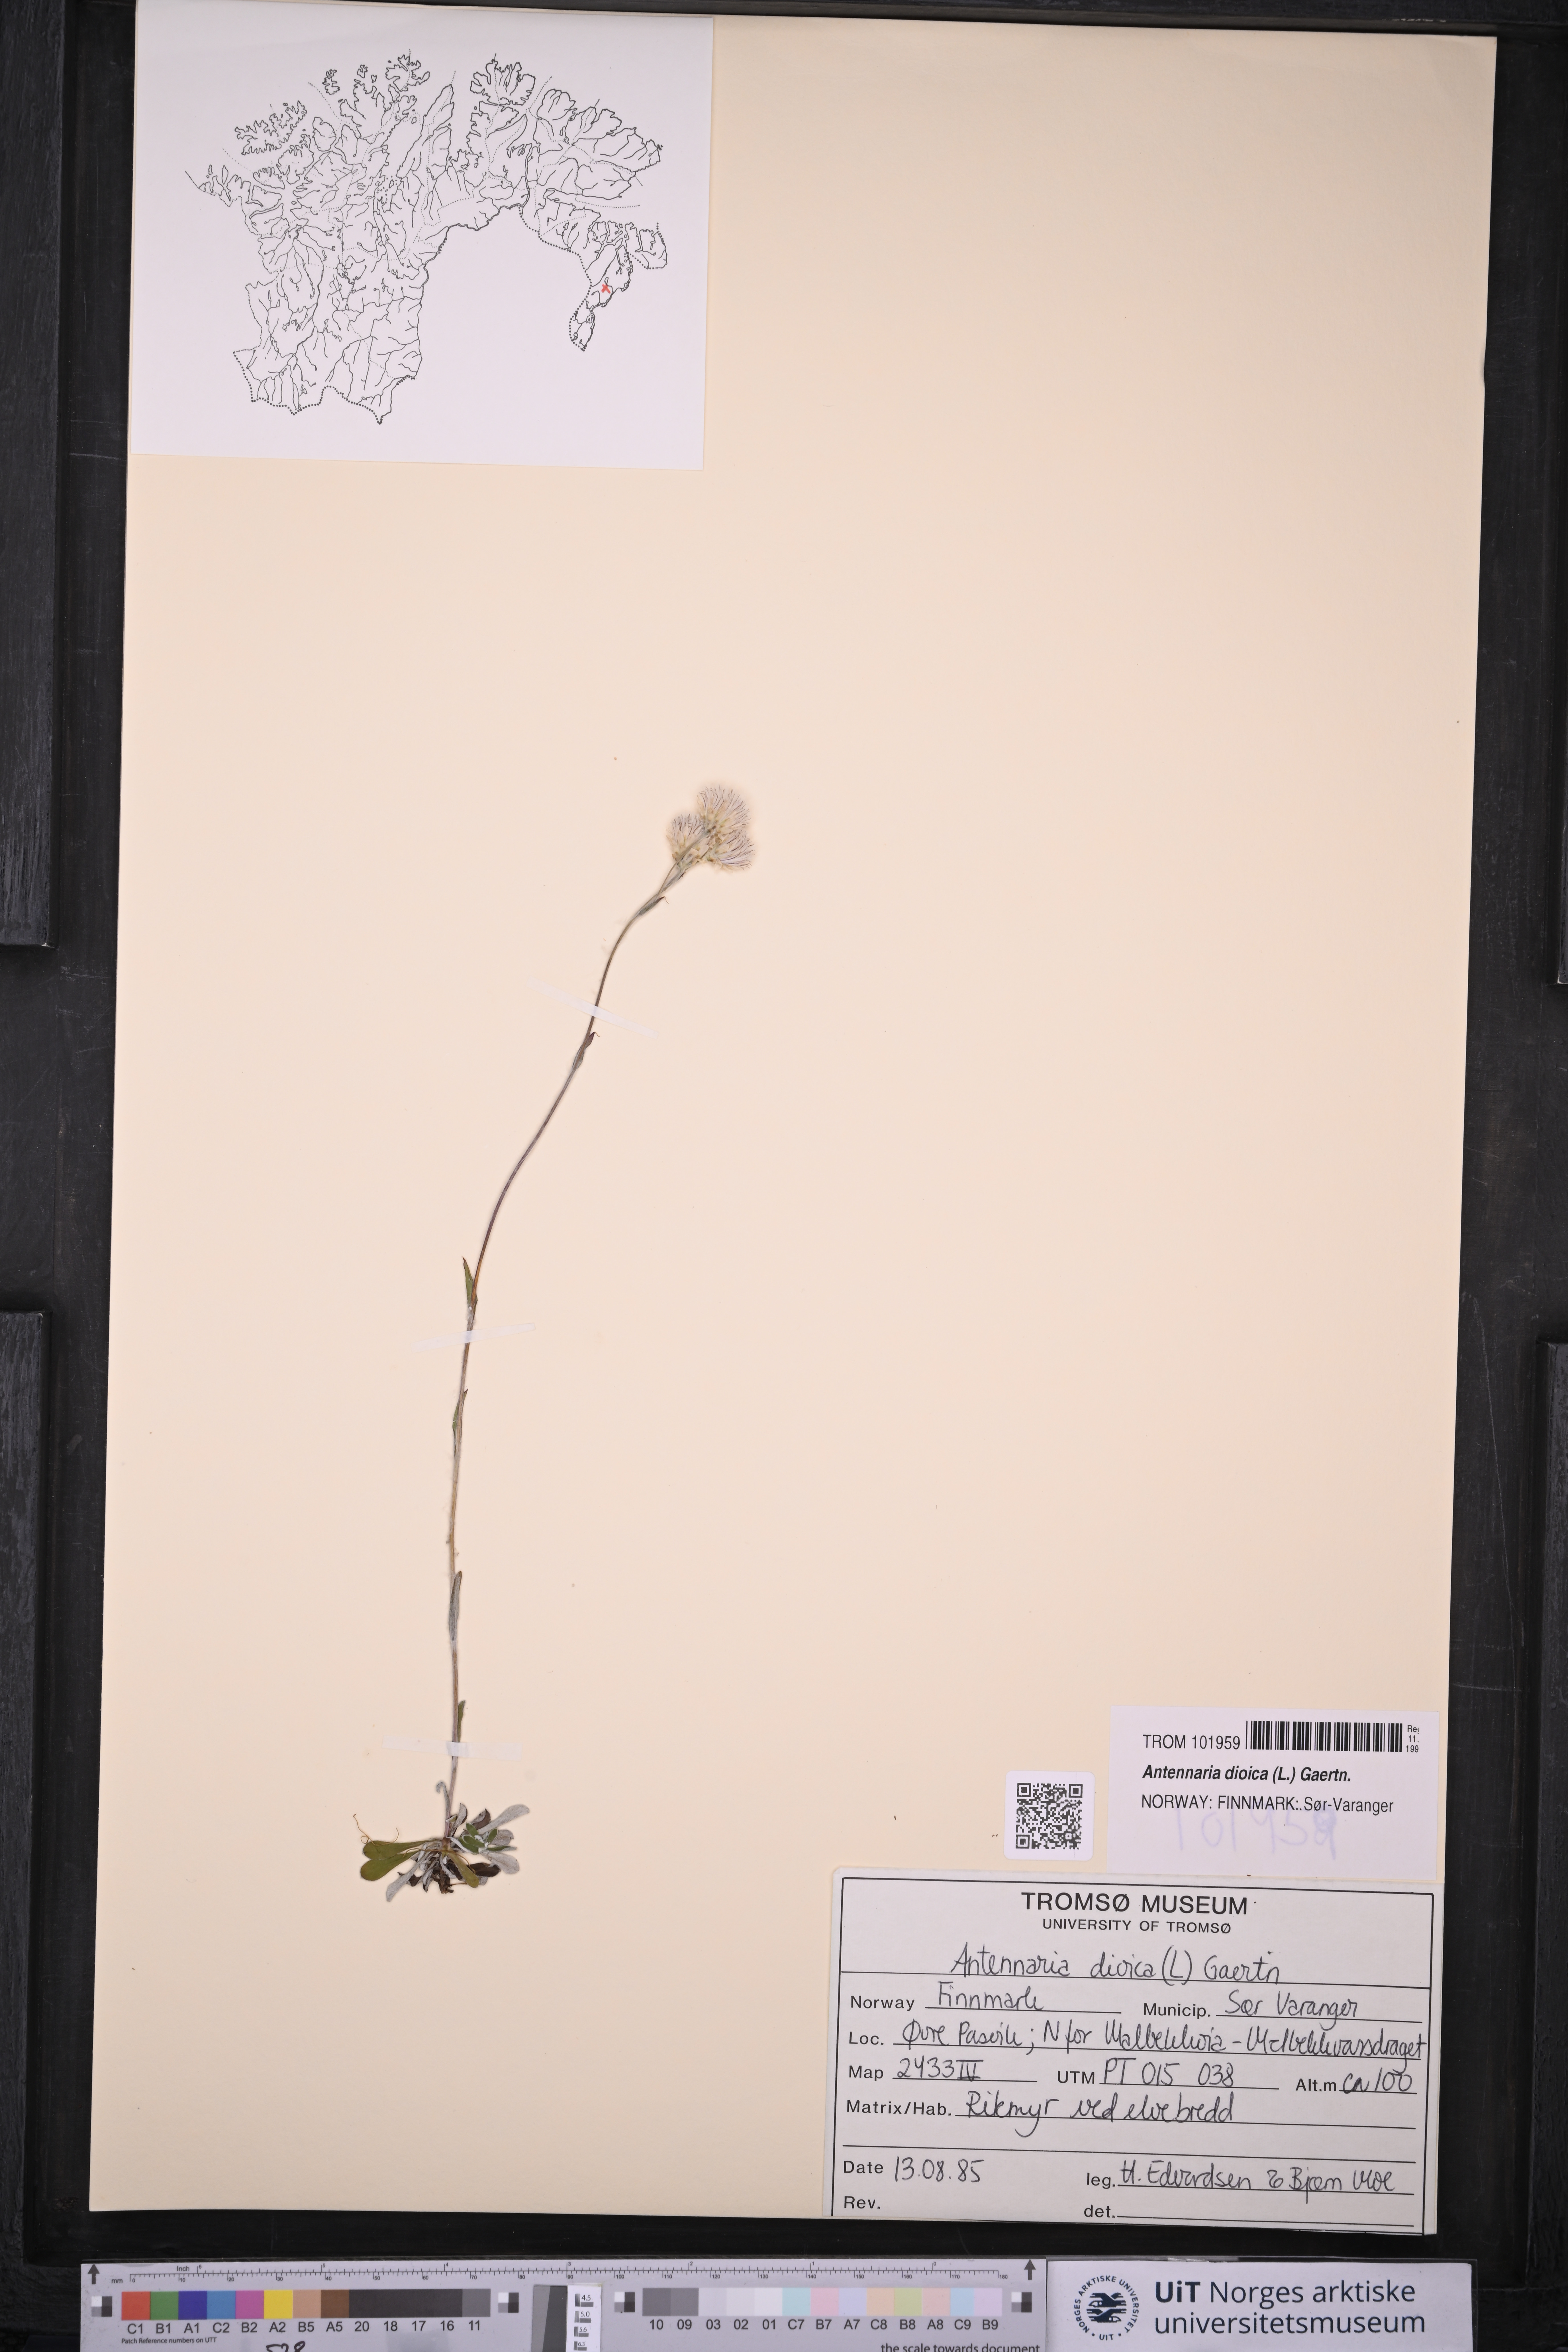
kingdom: Plantae
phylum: Tracheophyta
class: Magnoliopsida
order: Asterales
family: Asteraceae
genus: Antennaria
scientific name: Antennaria dioica
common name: Mountain everlasting
